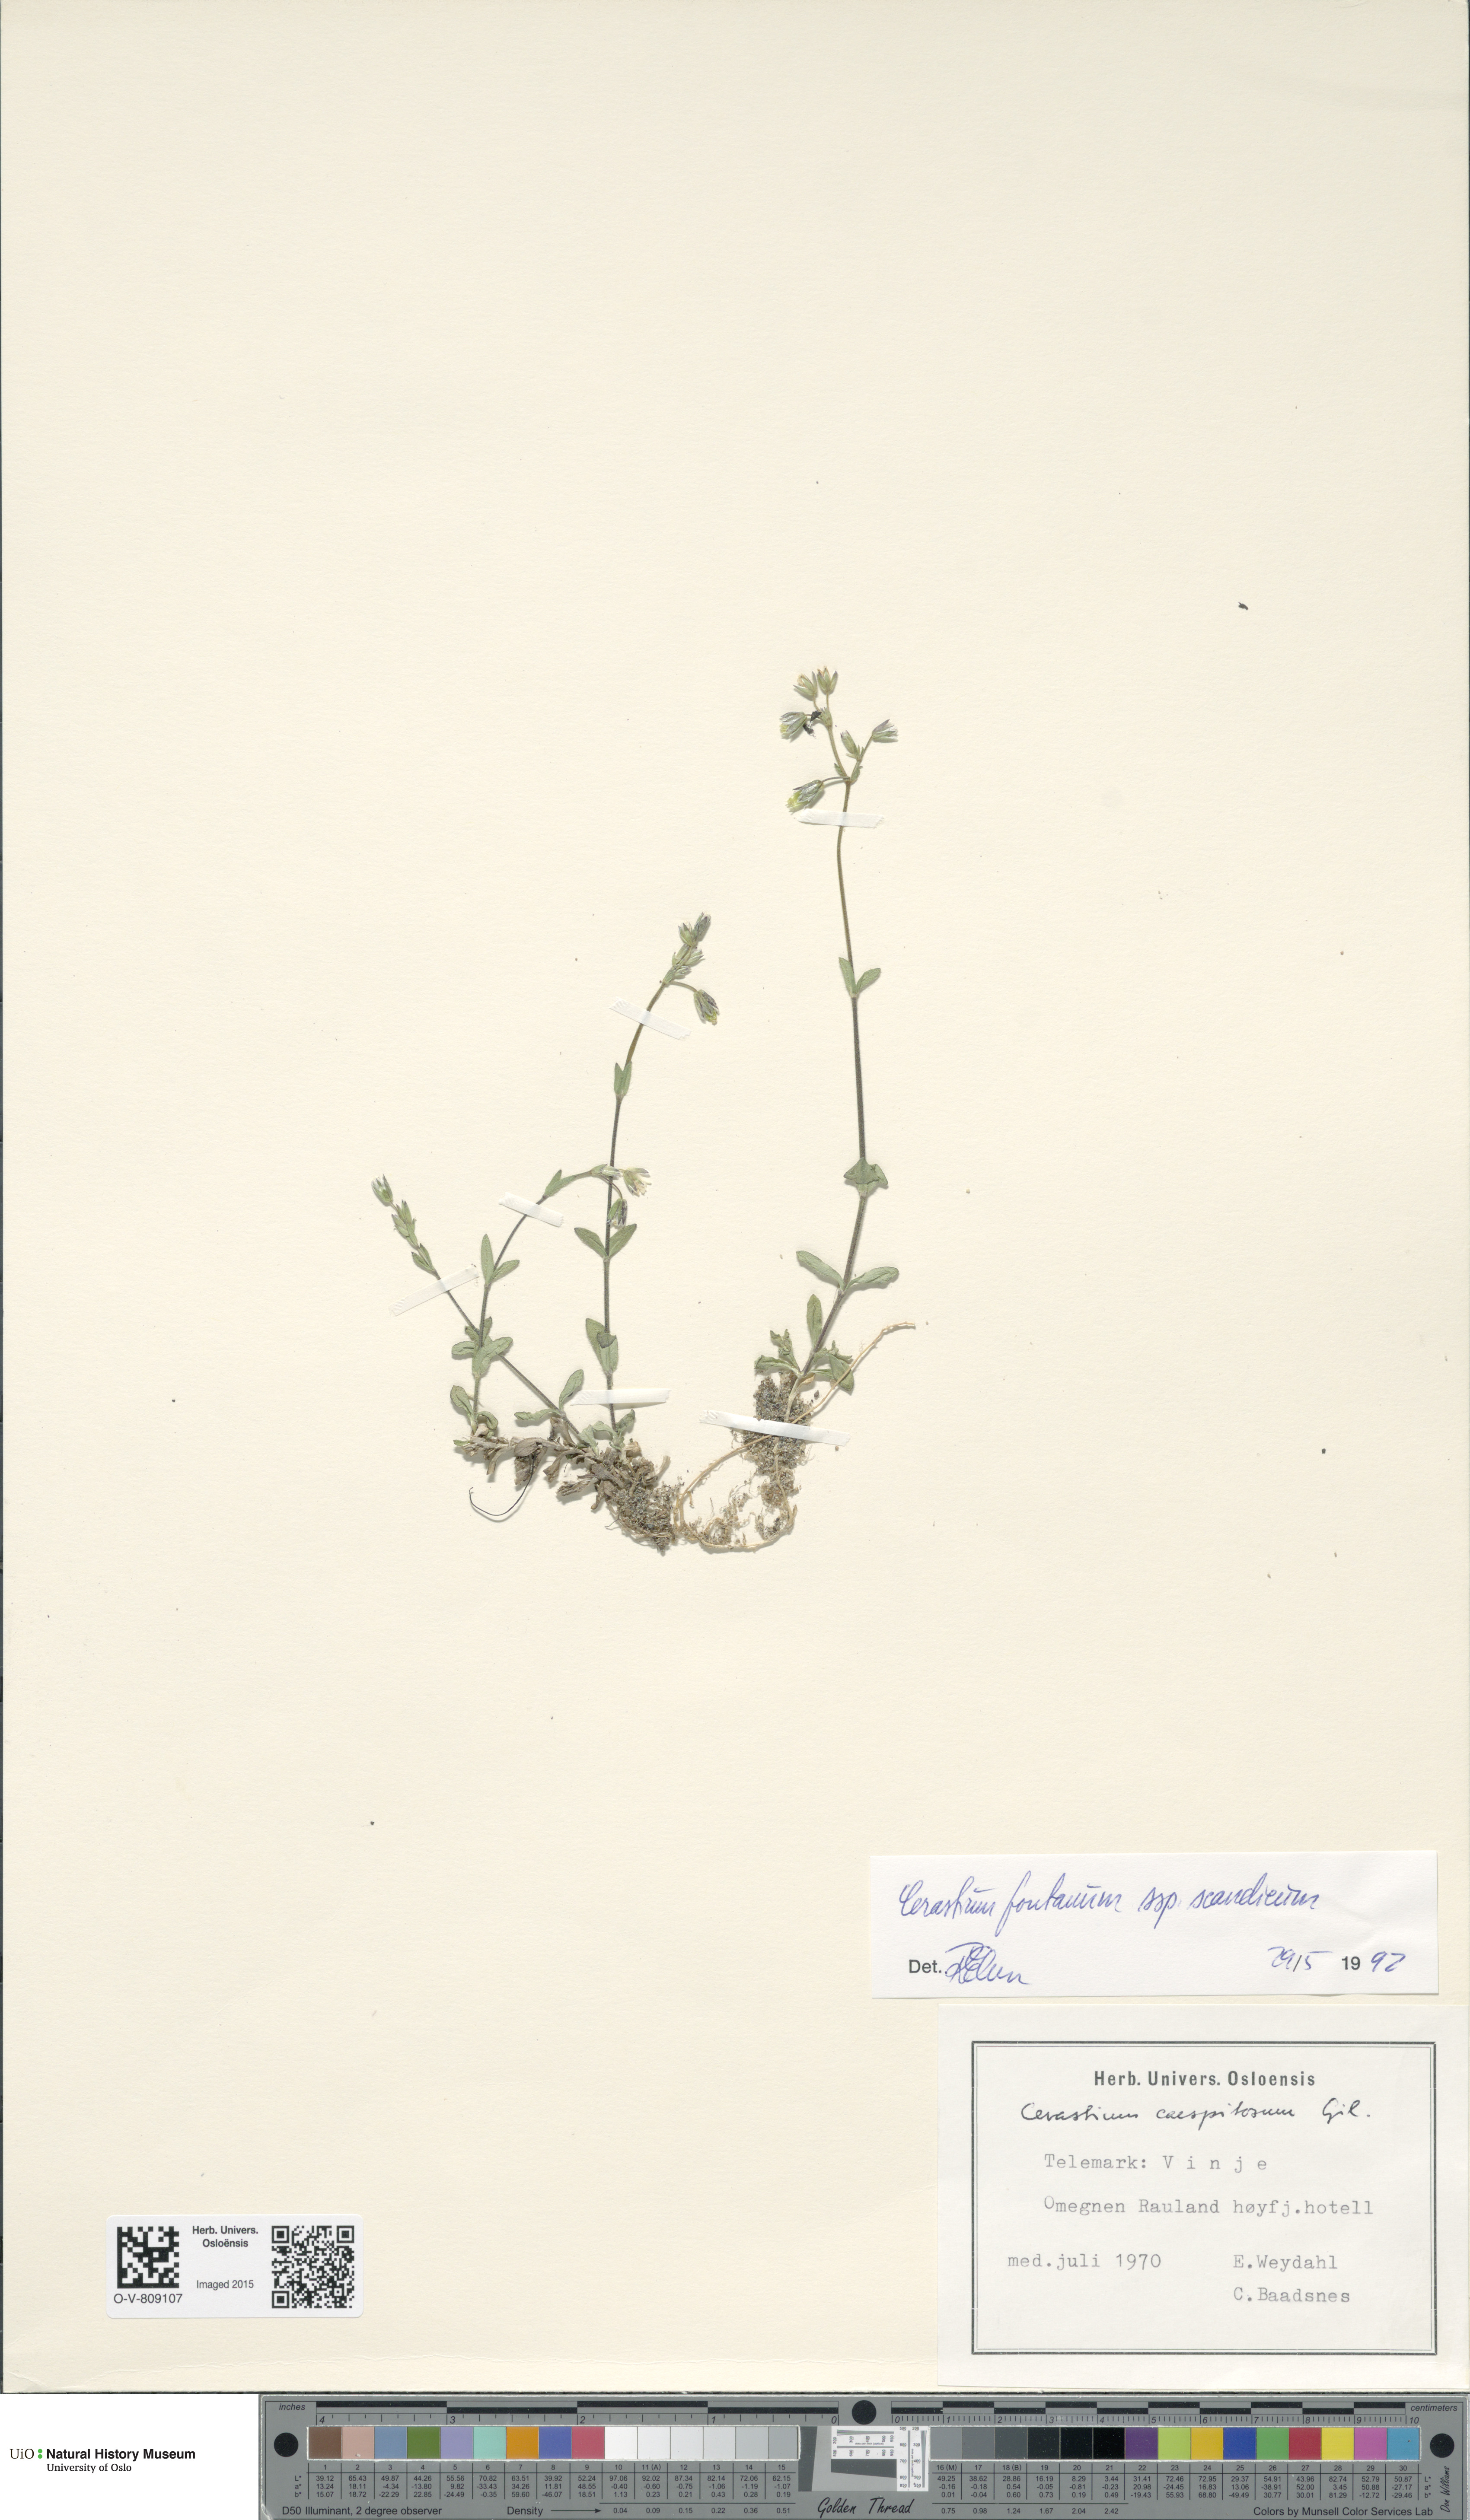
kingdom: Plantae
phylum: Tracheophyta
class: Magnoliopsida
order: Caryophyllales
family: Caryophyllaceae
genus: Cerastium
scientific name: Cerastium fontanum
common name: Common mouse-ear
